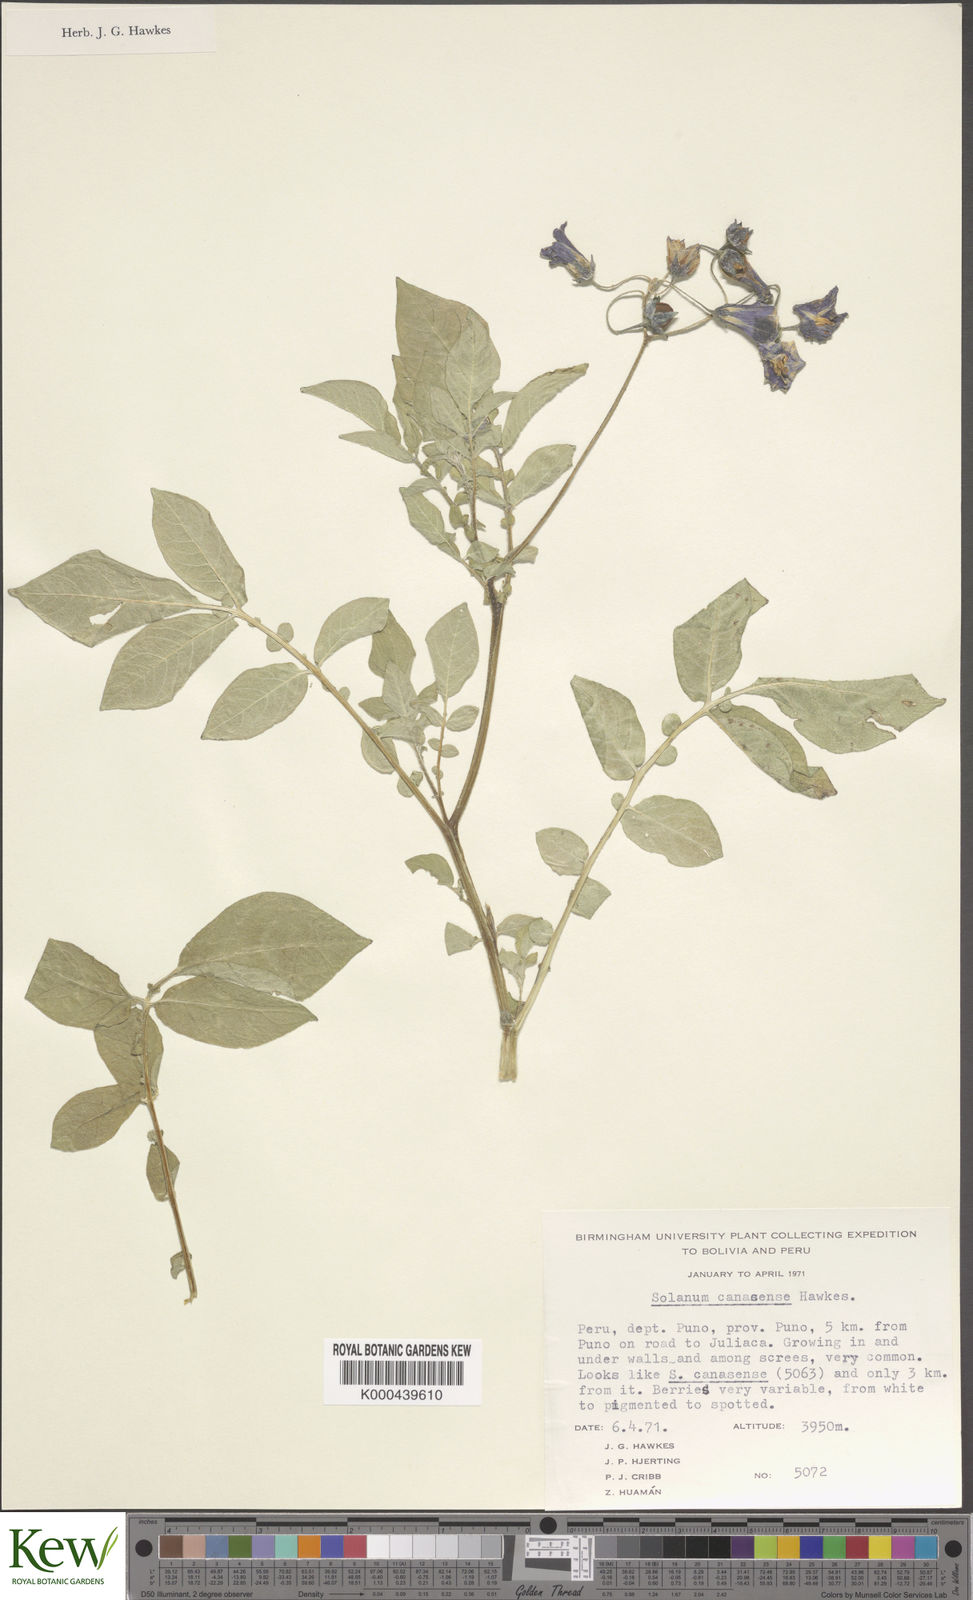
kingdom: Plantae
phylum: Tracheophyta
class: Magnoliopsida
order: Solanales
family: Solanaceae
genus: Solanum
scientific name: Solanum candolleanum
